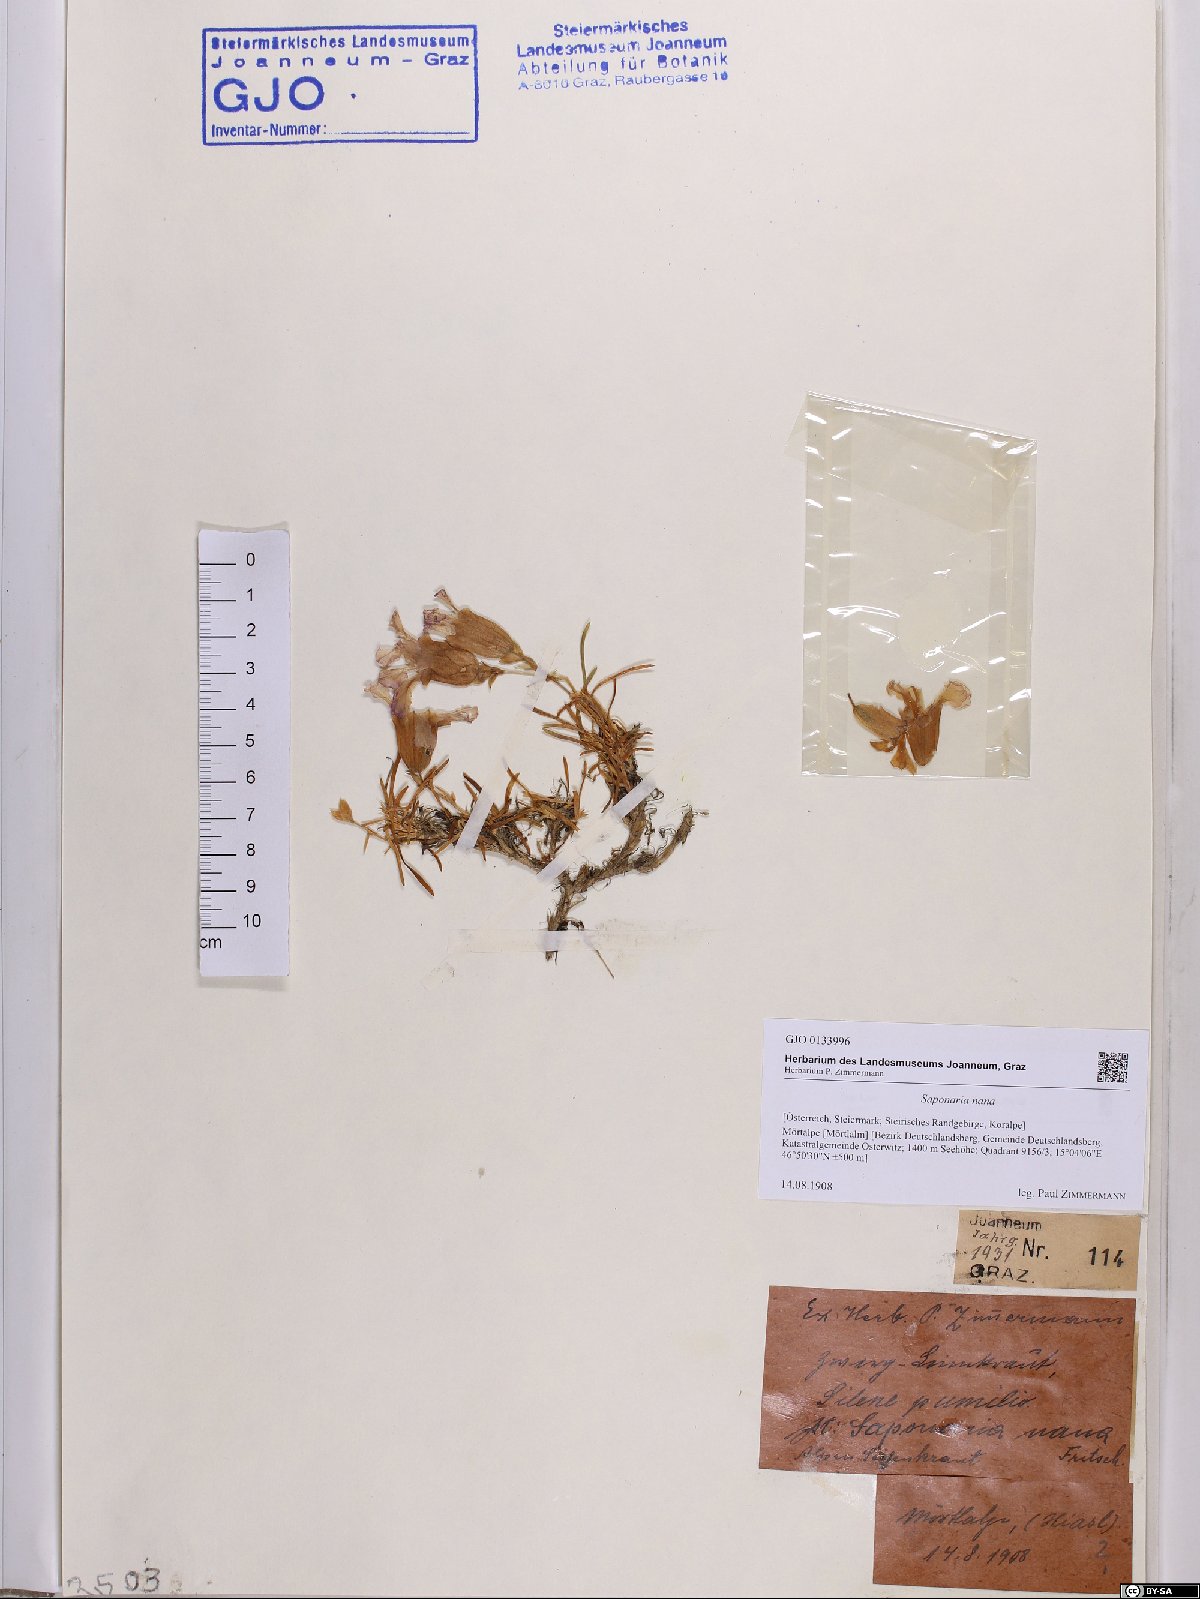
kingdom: Plantae
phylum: Tracheophyta
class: Magnoliopsida
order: Caryophyllales
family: Caryophyllaceae
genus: Saponaria
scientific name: Saponaria pumila
